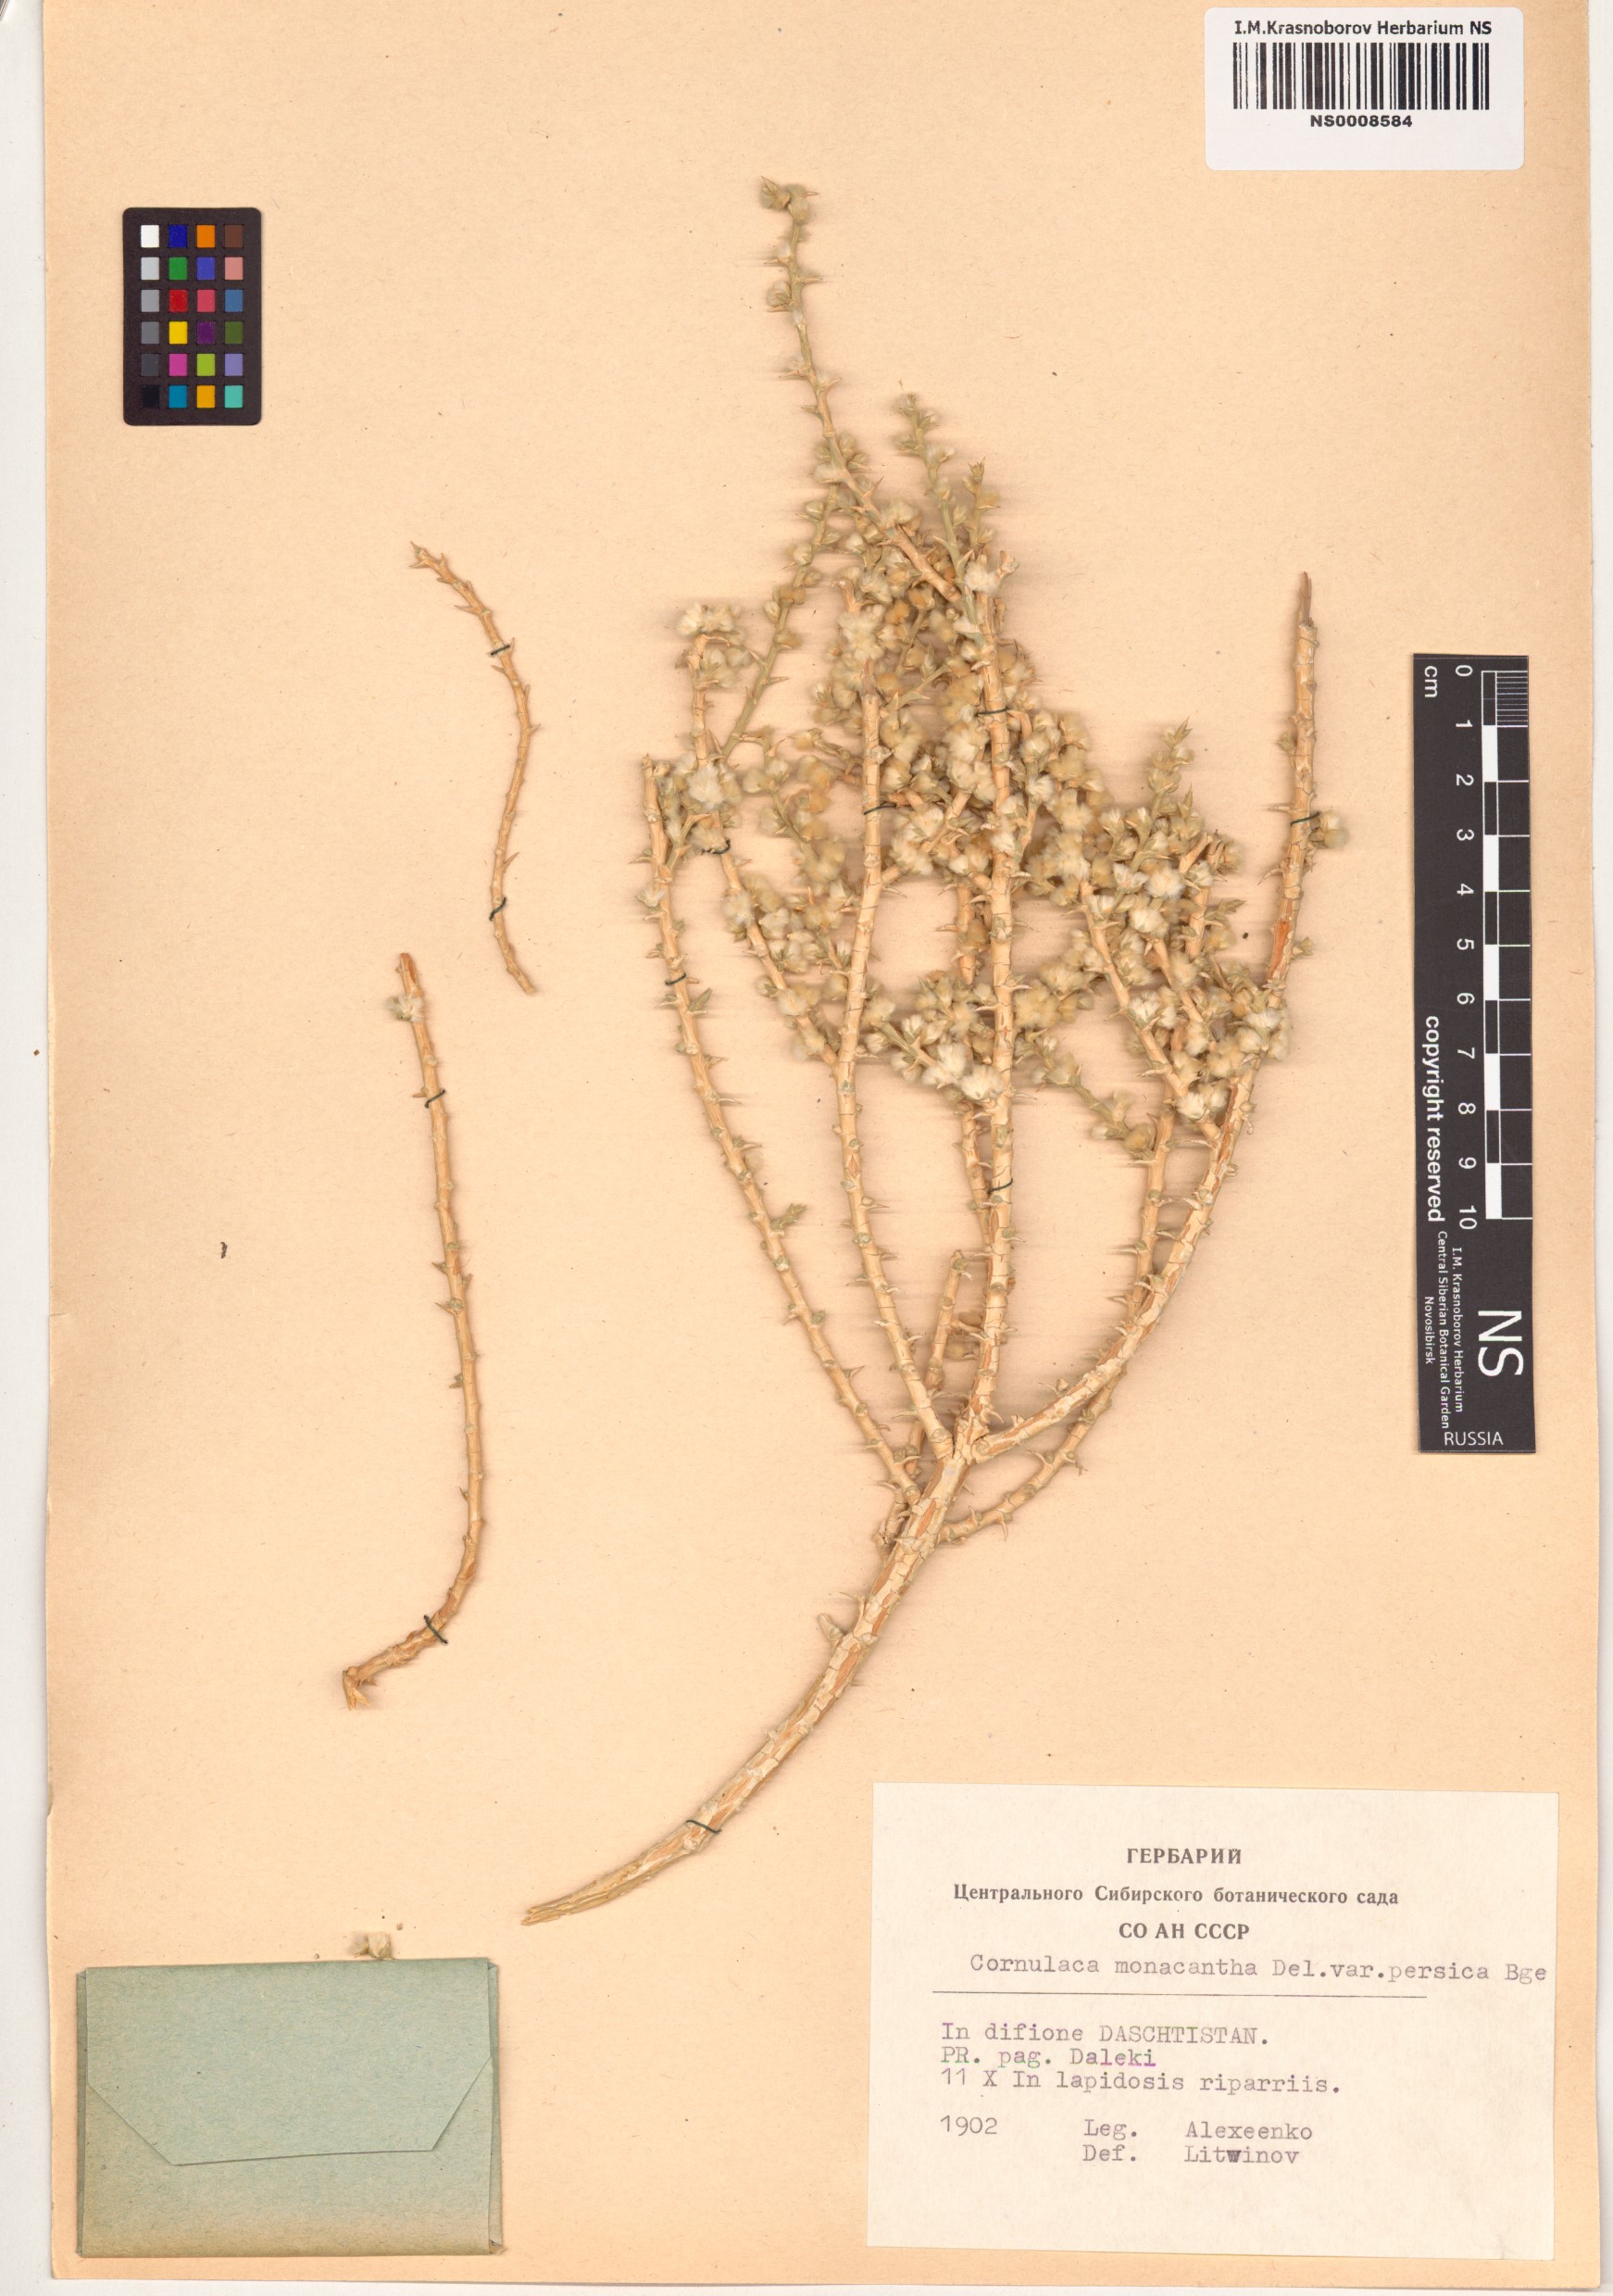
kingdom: Plantae
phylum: Tracheophyta
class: Magnoliopsida
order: Caryophyllales
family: Amaranthaceae
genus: Cornulaca
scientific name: Cornulaca monacantha
